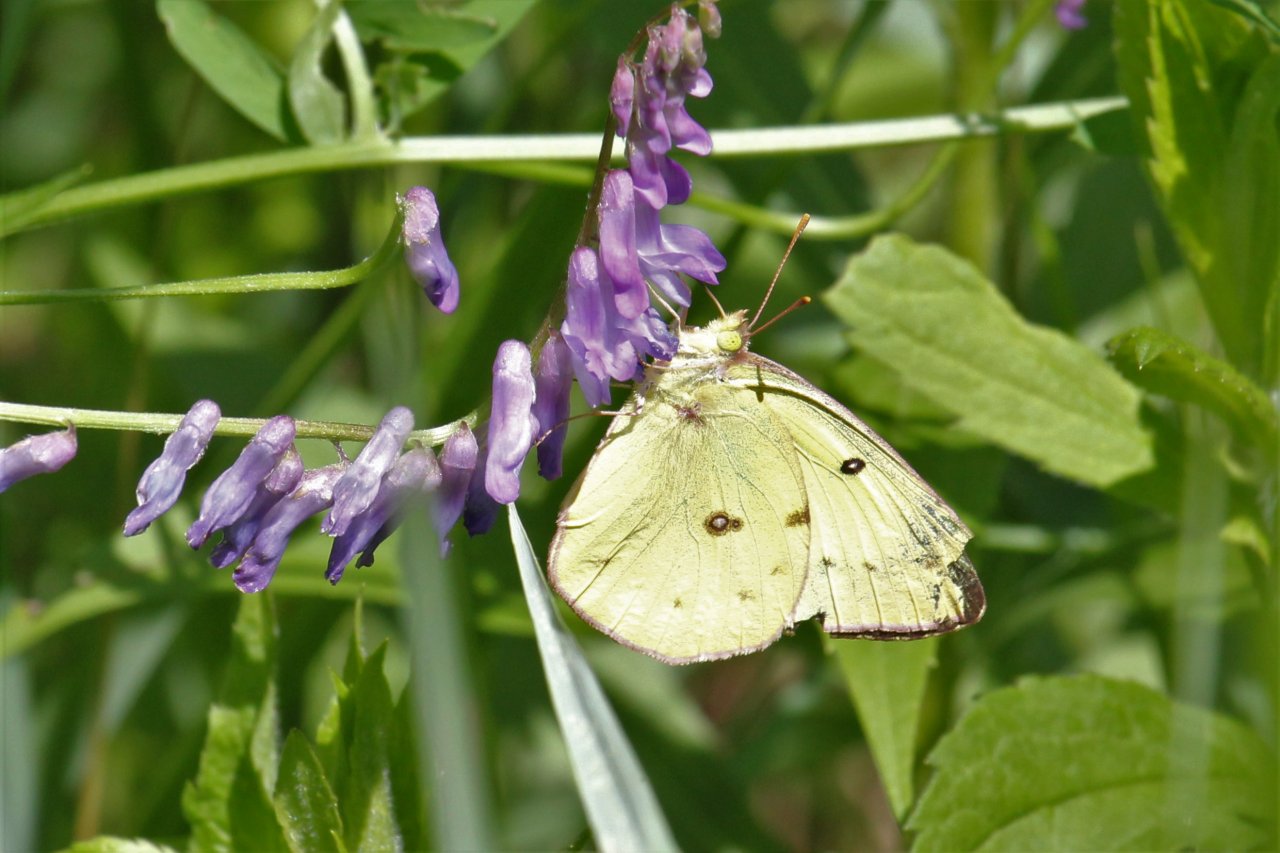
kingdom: Animalia
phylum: Arthropoda
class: Insecta
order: Lepidoptera
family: Pieridae
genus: Colias
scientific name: Colias philodice
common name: Clouded Sulphur
